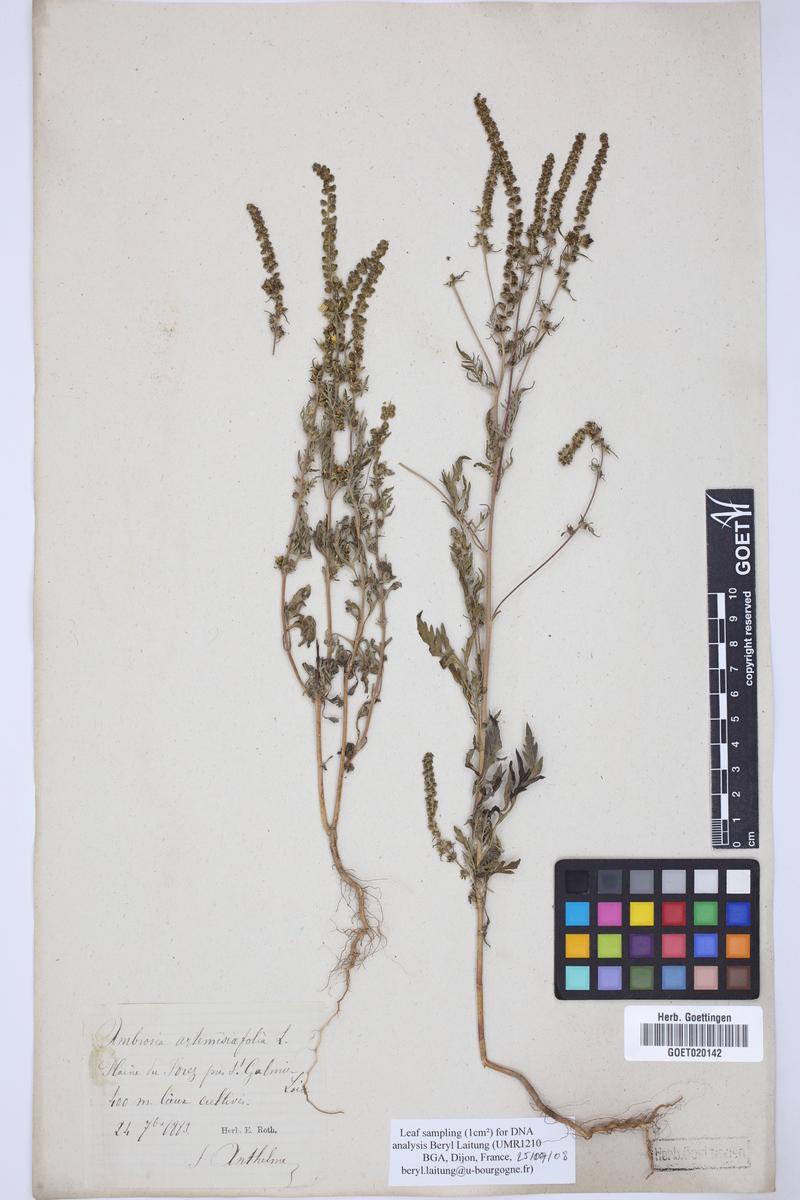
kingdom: Plantae
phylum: Tracheophyta
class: Magnoliopsida
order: Asterales
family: Asteraceae
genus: Ambrosia
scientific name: Ambrosia artemisiifolia
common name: Annual ragweed
